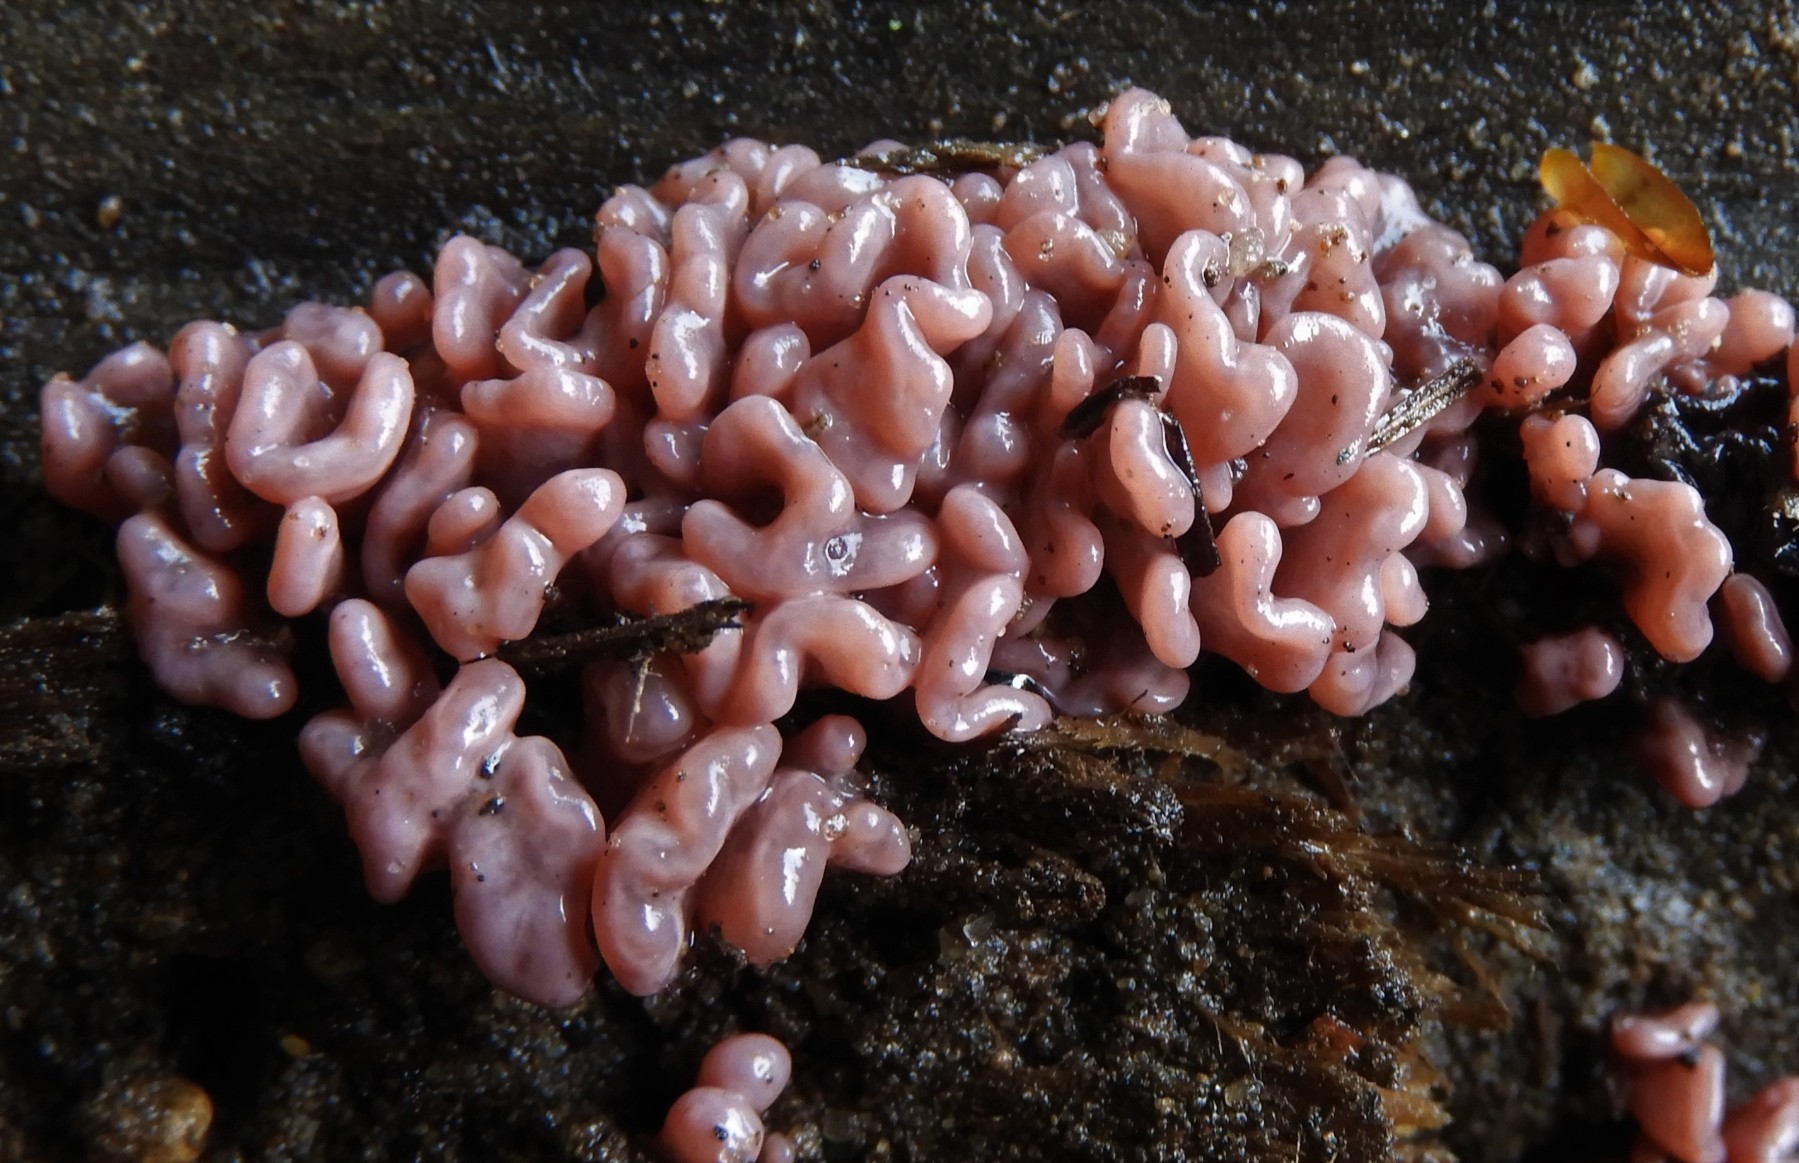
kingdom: Fungi
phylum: Ascomycota
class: Leotiomycetes
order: Helotiales
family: Gelatinodiscaceae
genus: Ascocoryne
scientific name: Ascocoryne sarcoides
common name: rødlilla sejskive
